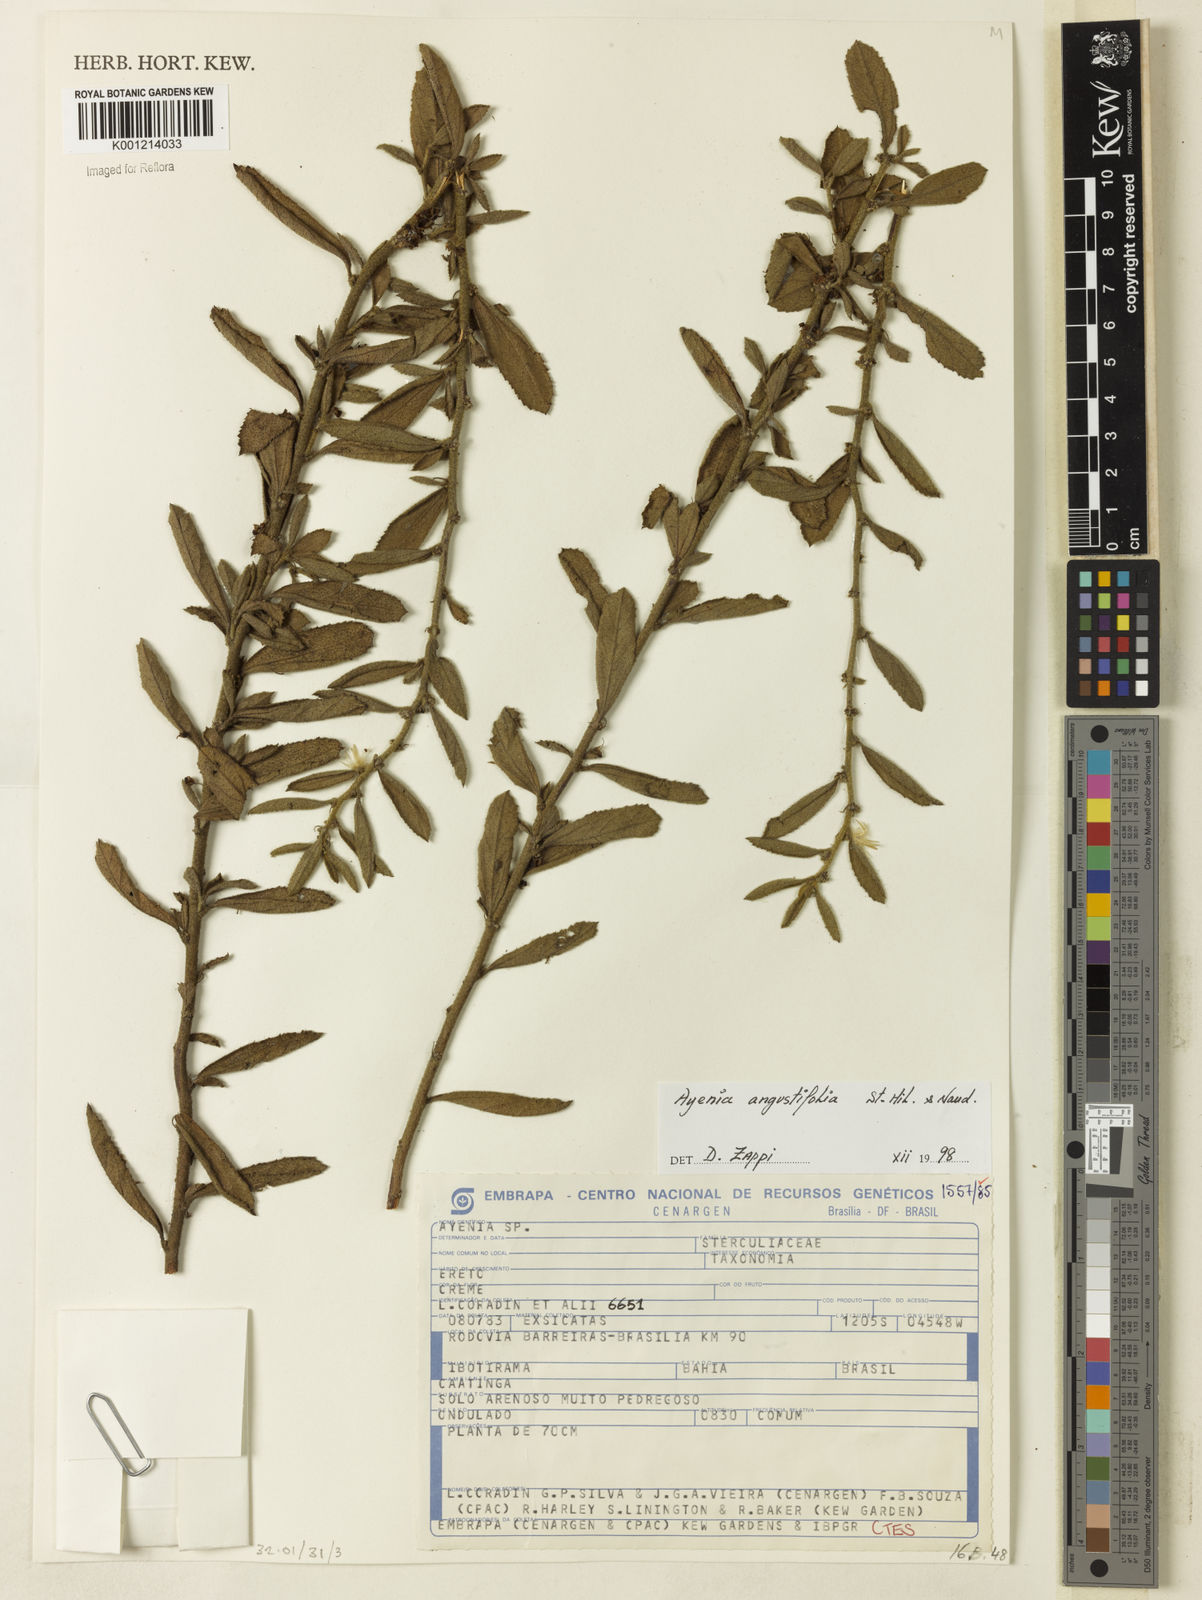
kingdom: Plantae
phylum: Tracheophyta
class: Magnoliopsida
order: Malvales
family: Malvaceae
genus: Ayenia
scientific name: Ayenia angustifolia
